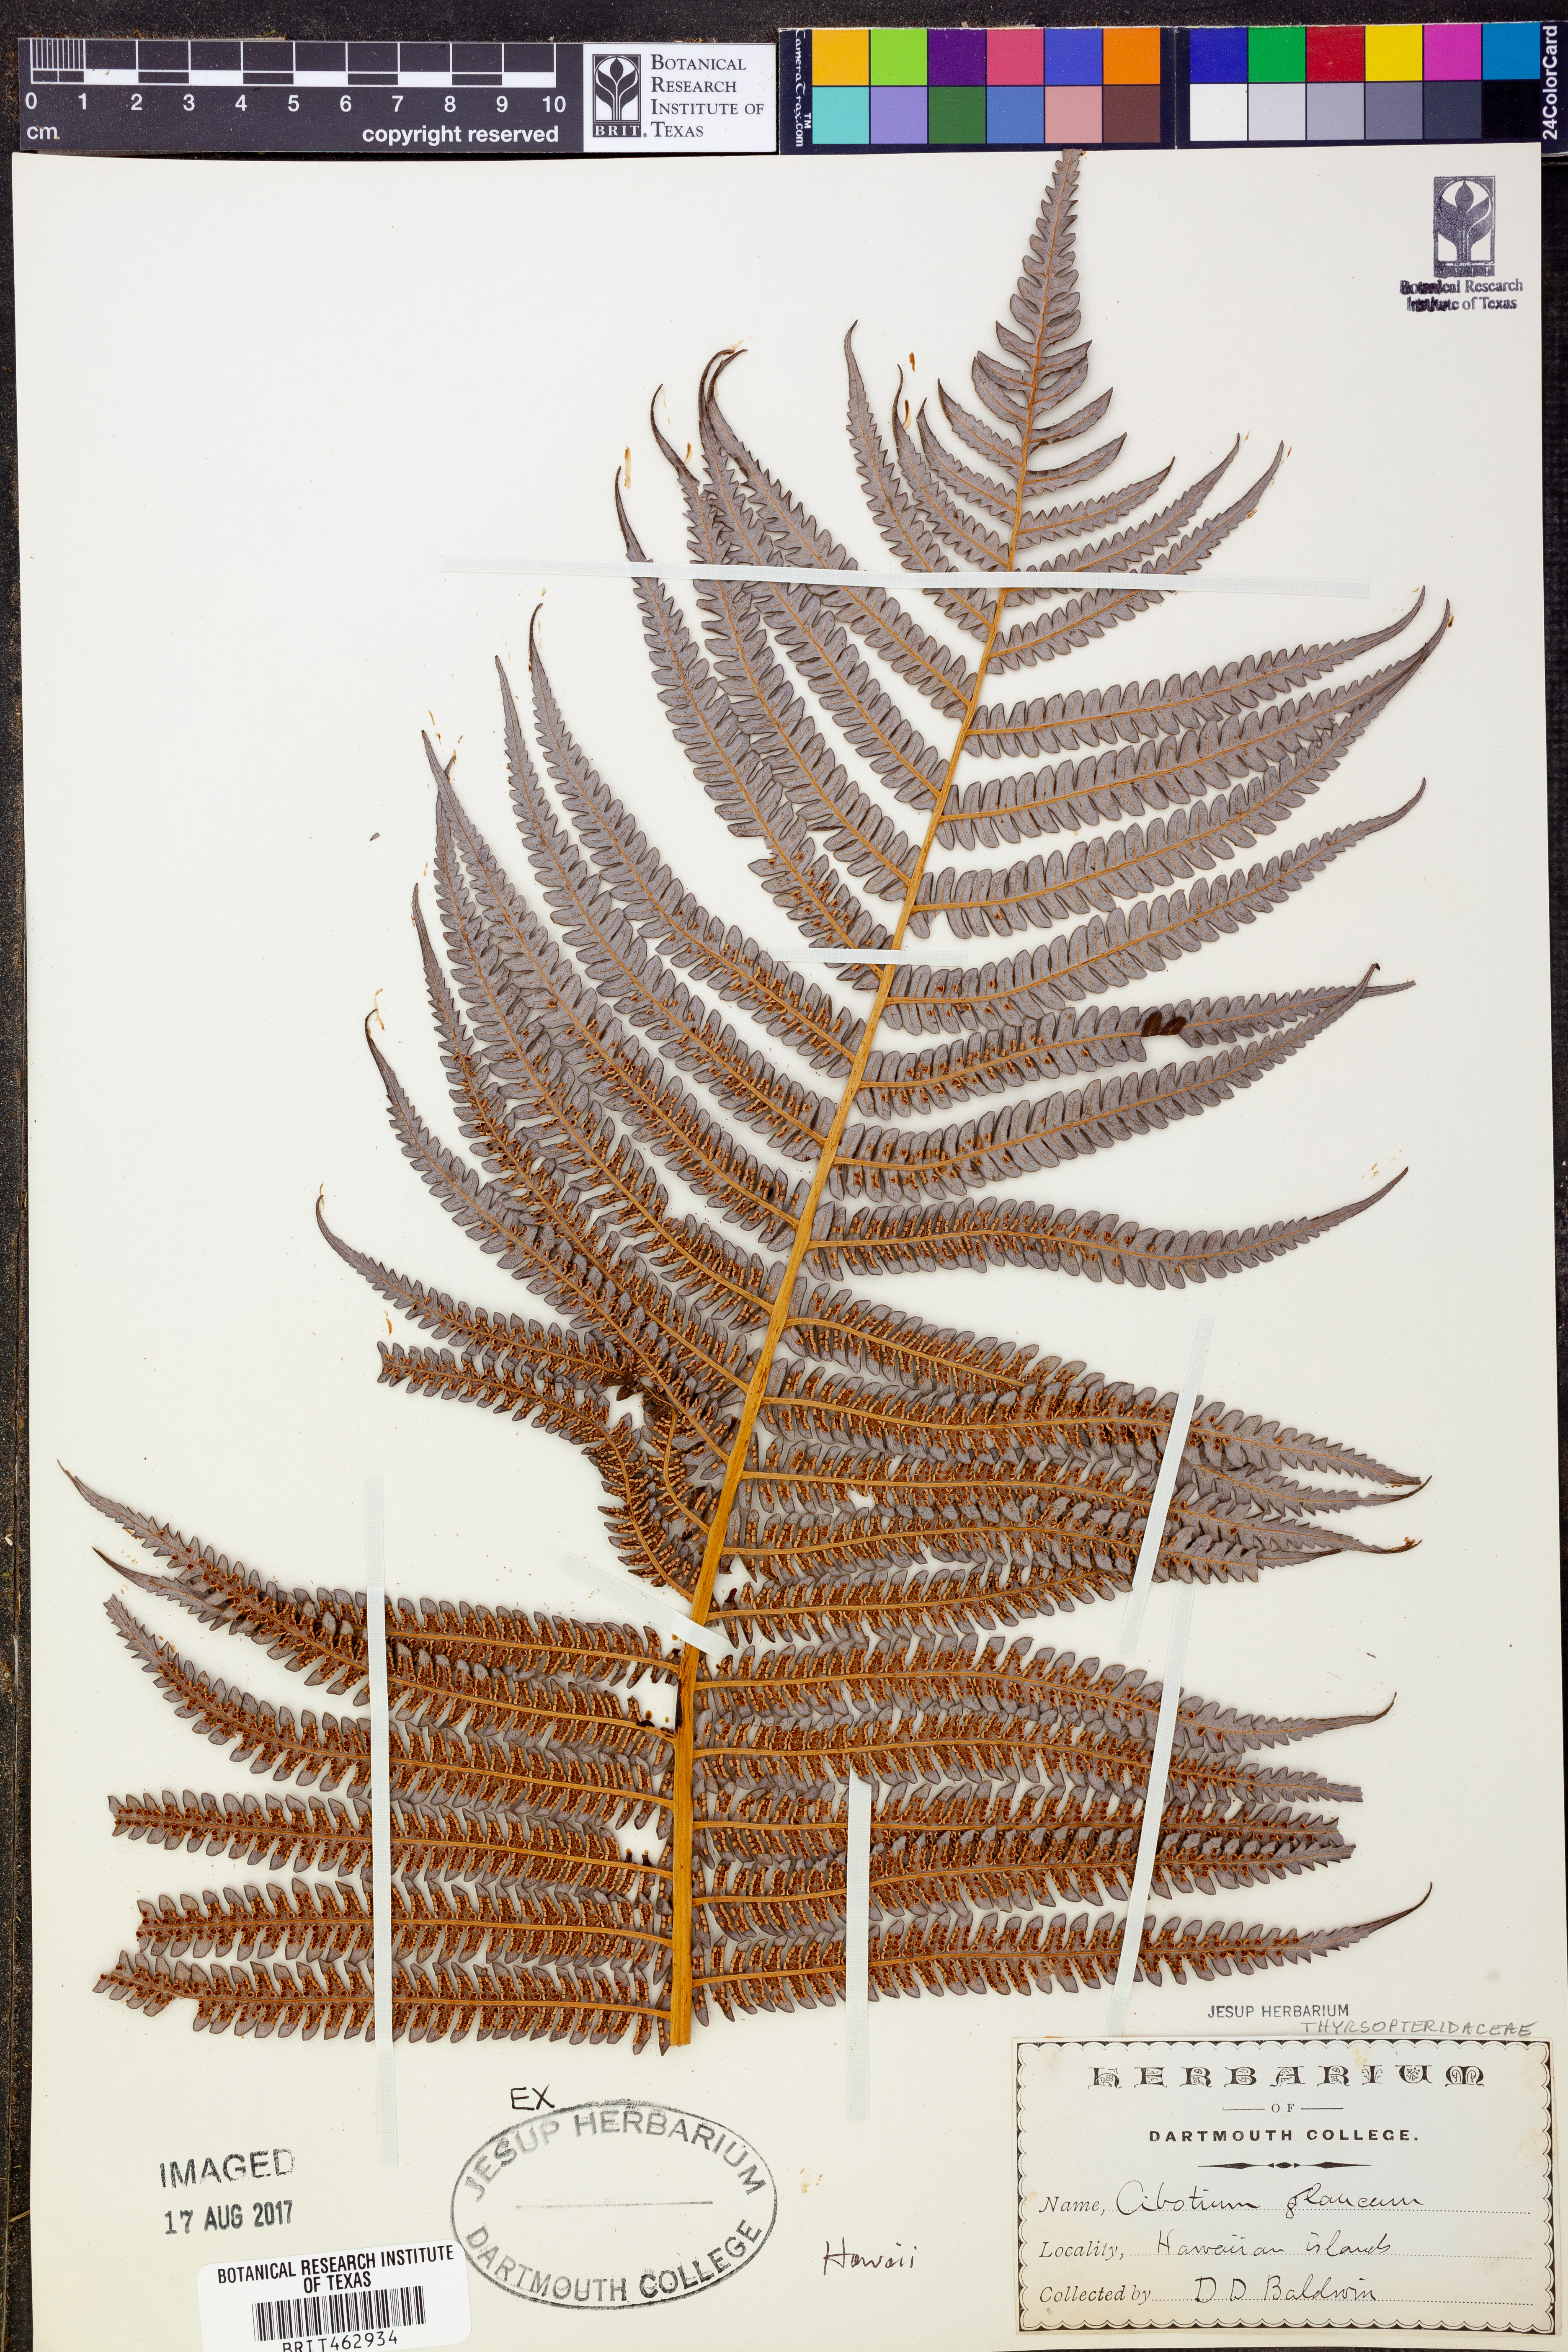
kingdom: Plantae
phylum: Tracheophyta
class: Polypodiopsida
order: Cyatheales
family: Cibotiaceae
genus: Cibotium
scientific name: Cibotium glaucum
